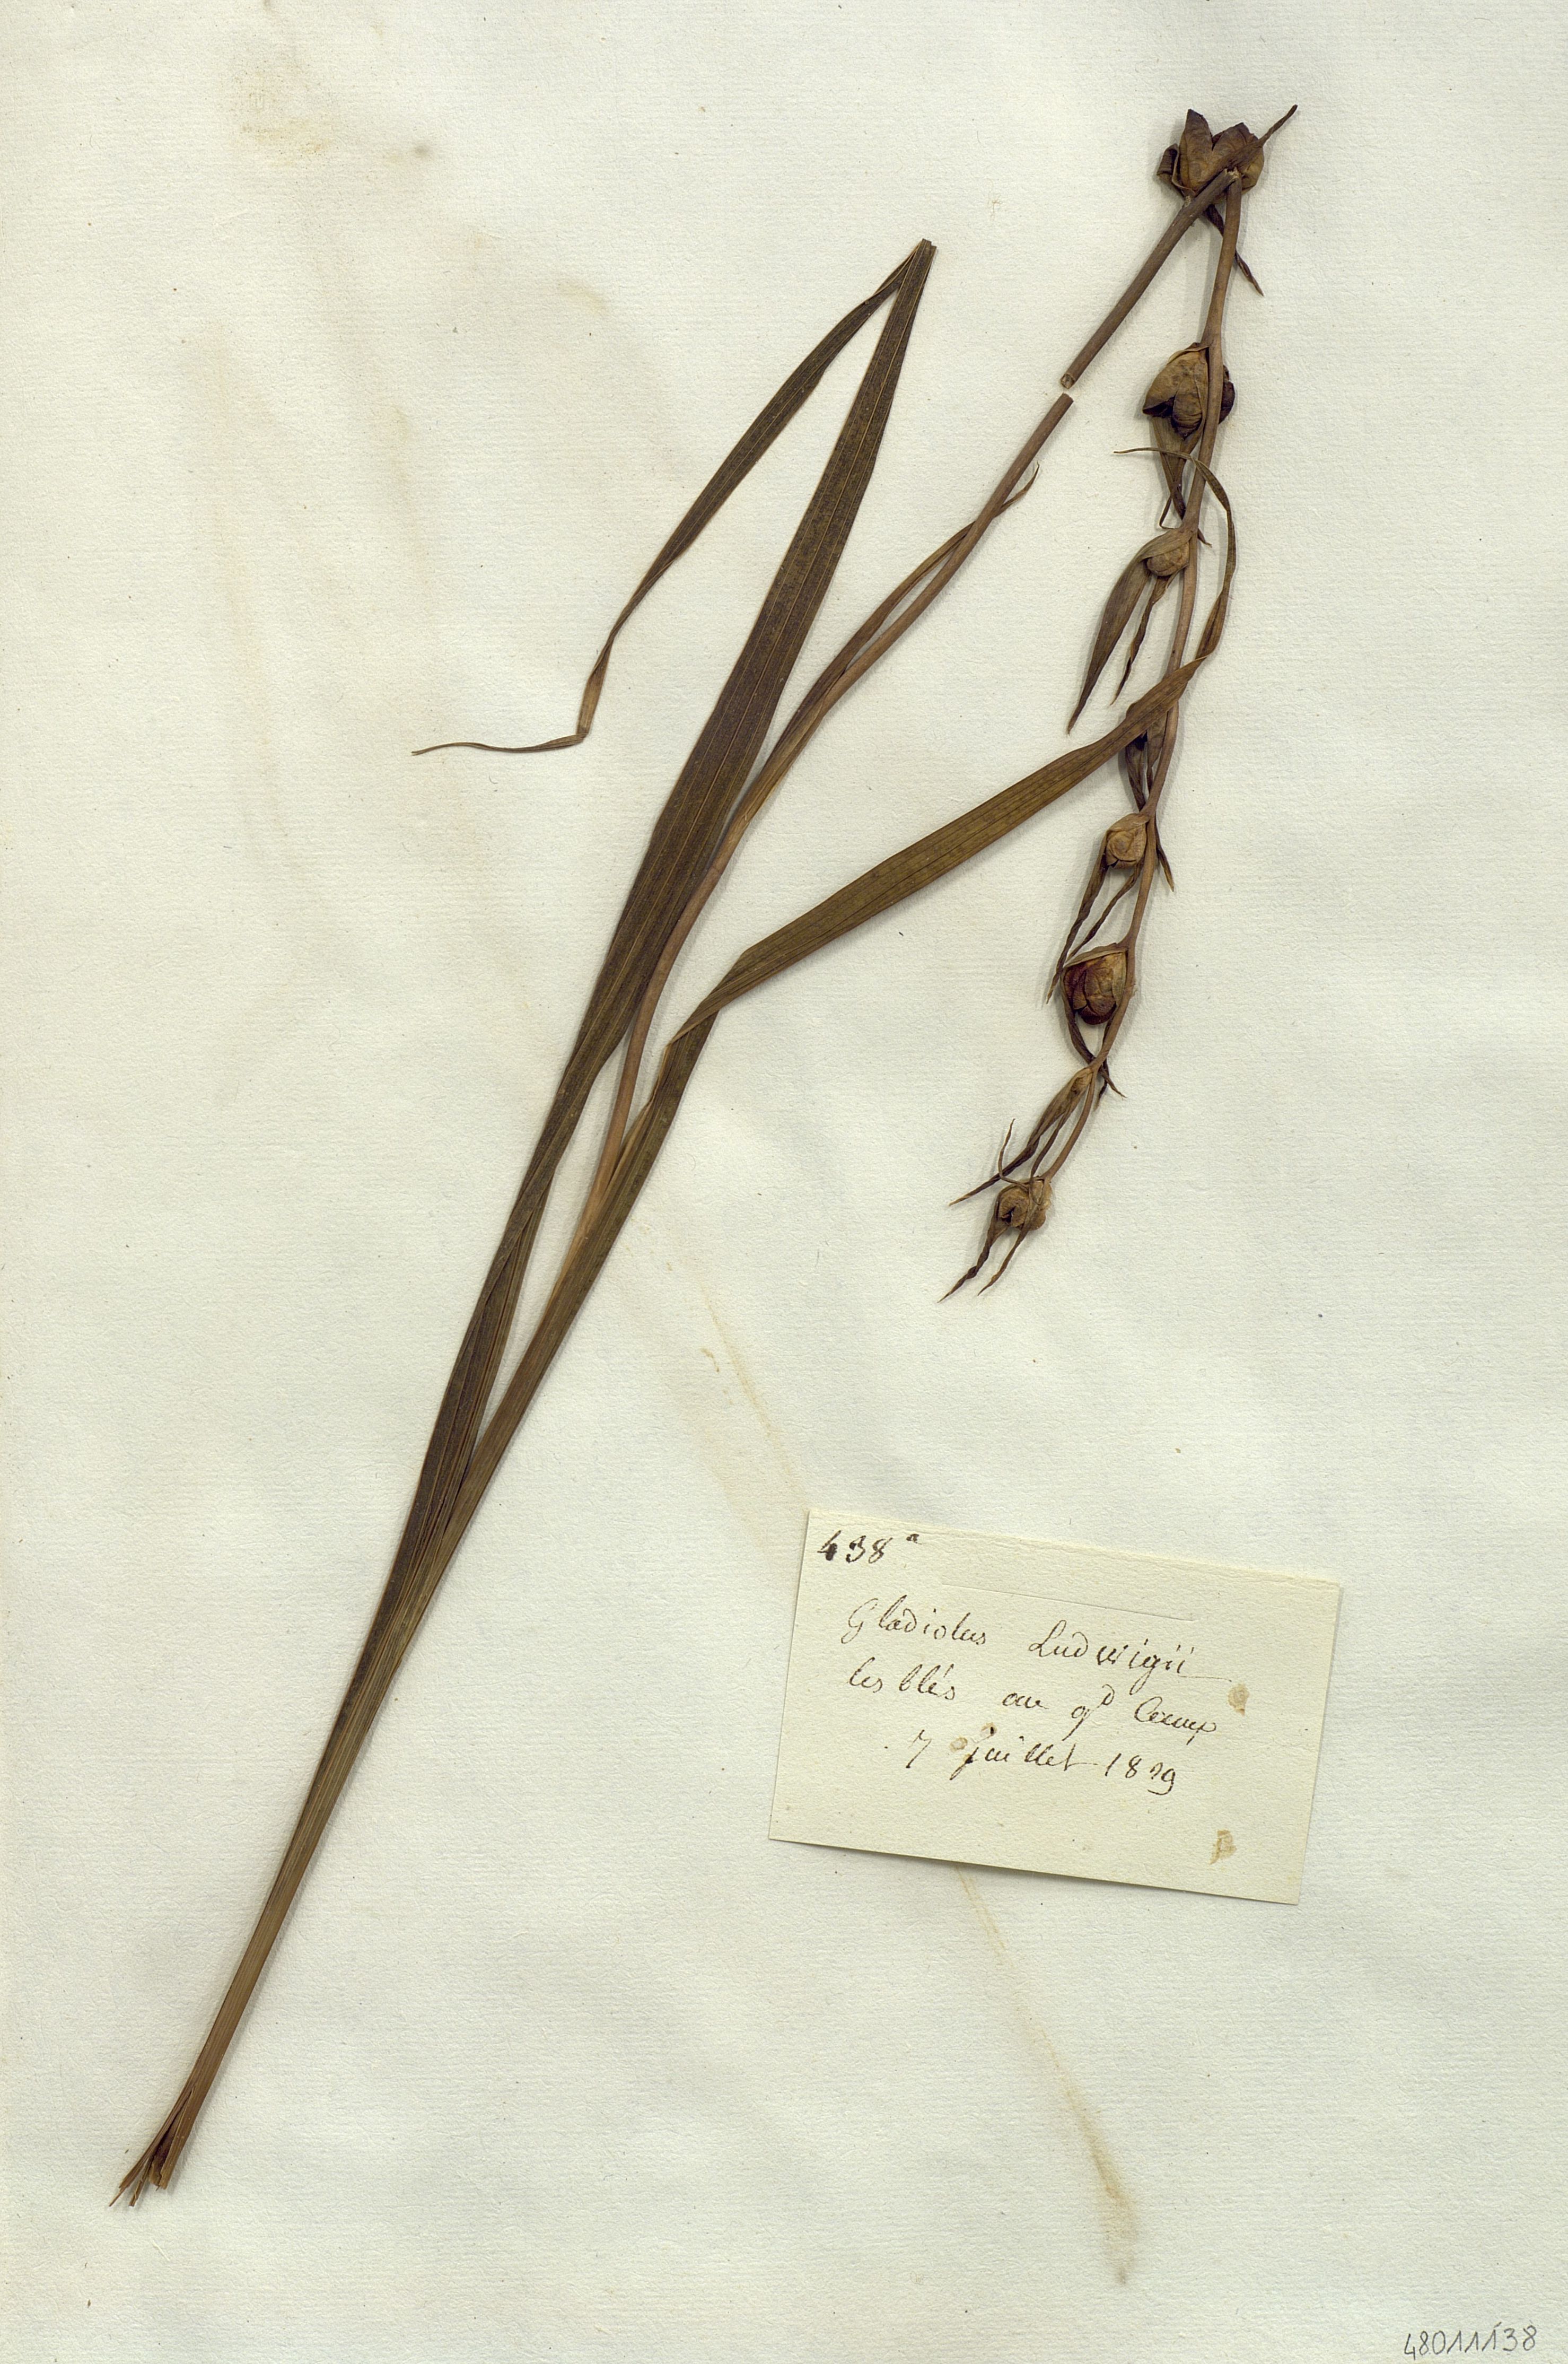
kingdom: Plantae
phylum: Tracheophyta
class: Liliopsida
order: Asparagales
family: Iridaceae
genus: Gladiolus
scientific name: Gladiolus sericeovillosus
